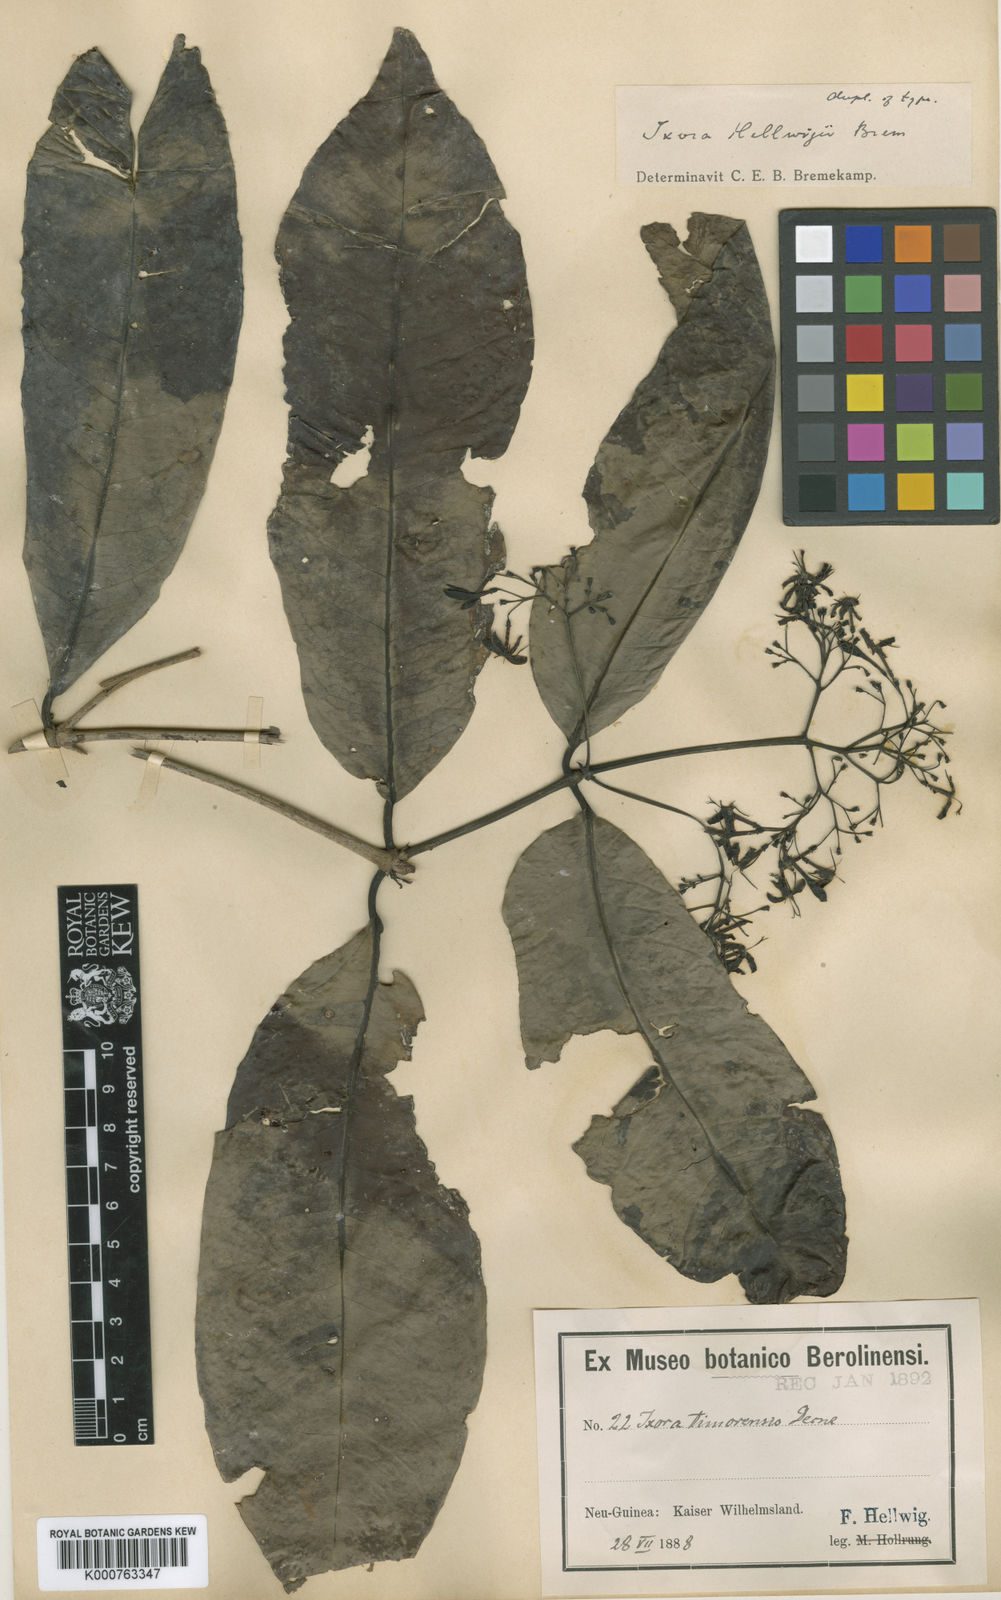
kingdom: Plantae
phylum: Tracheophyta
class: Magnoliopsida
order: Gentianales
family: Rubiaceae
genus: Ixora
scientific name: Ixora helwigii
